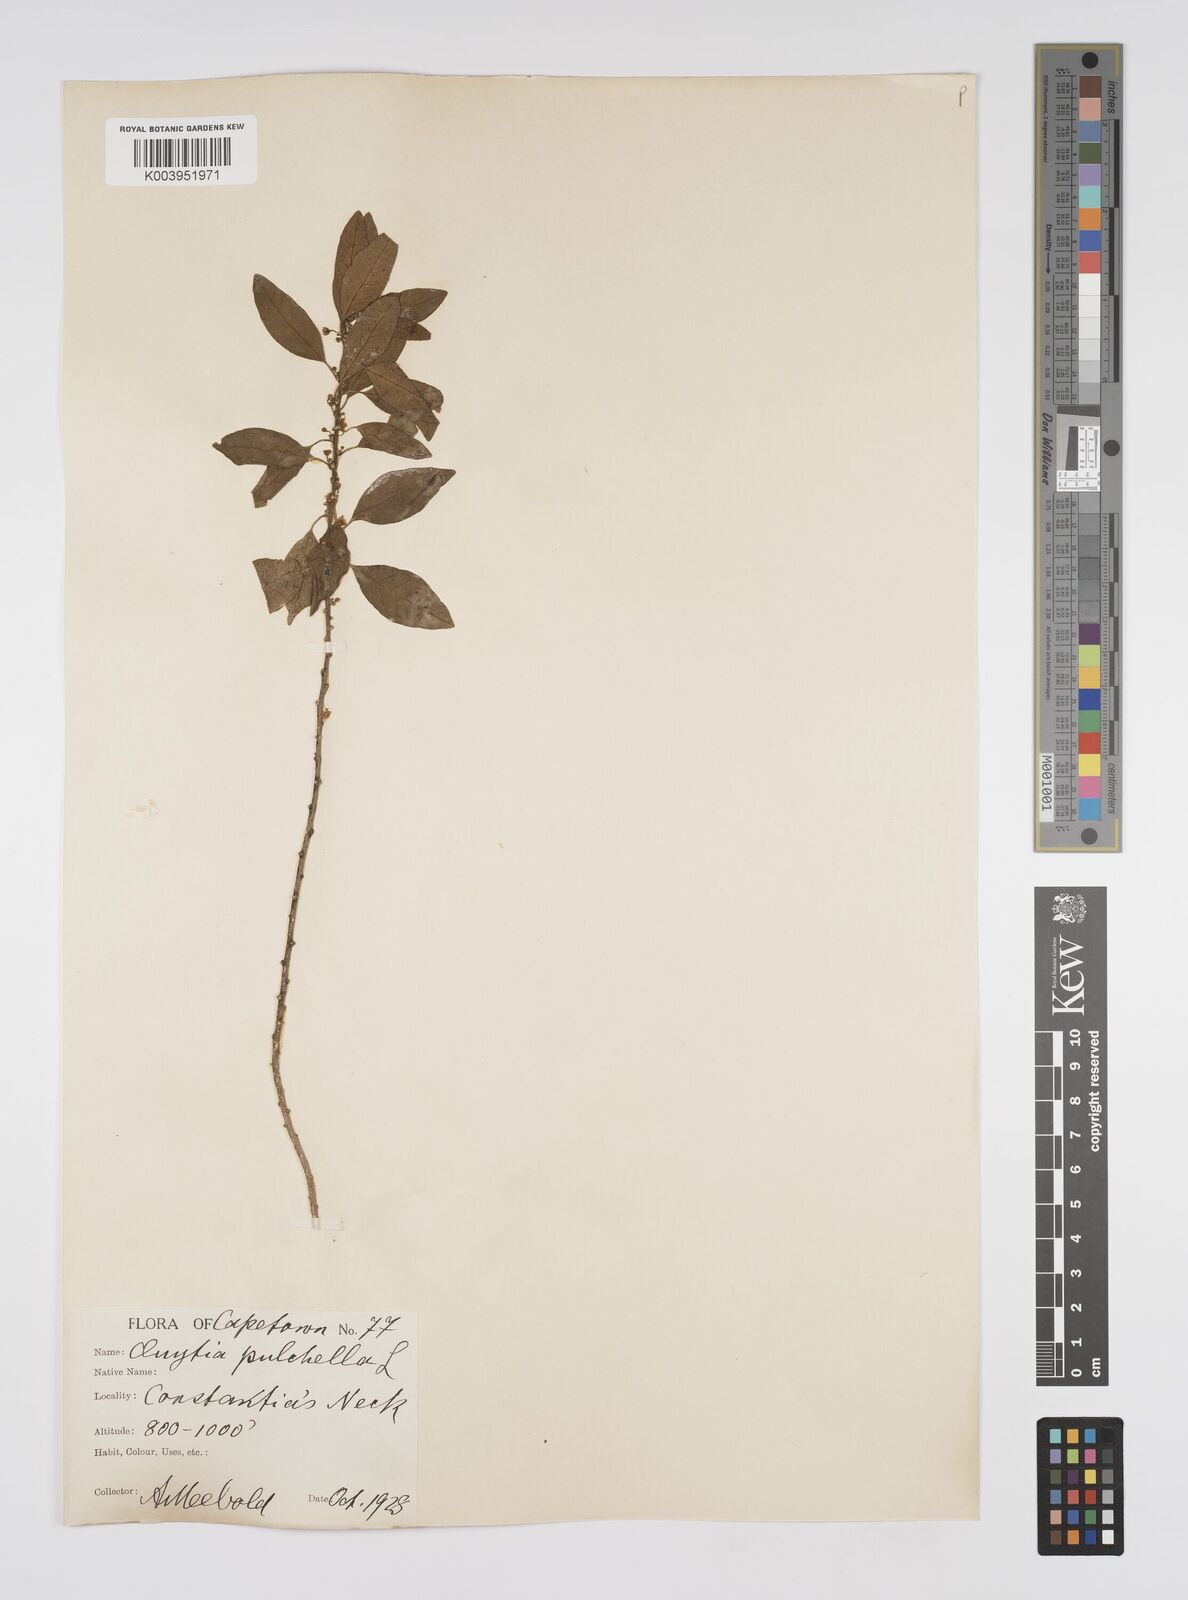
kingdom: Plantae
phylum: Tracheophyta
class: Magnoliopsida
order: Malpighiales
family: Peraceae
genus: Clutia
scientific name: Clutia pulchella
